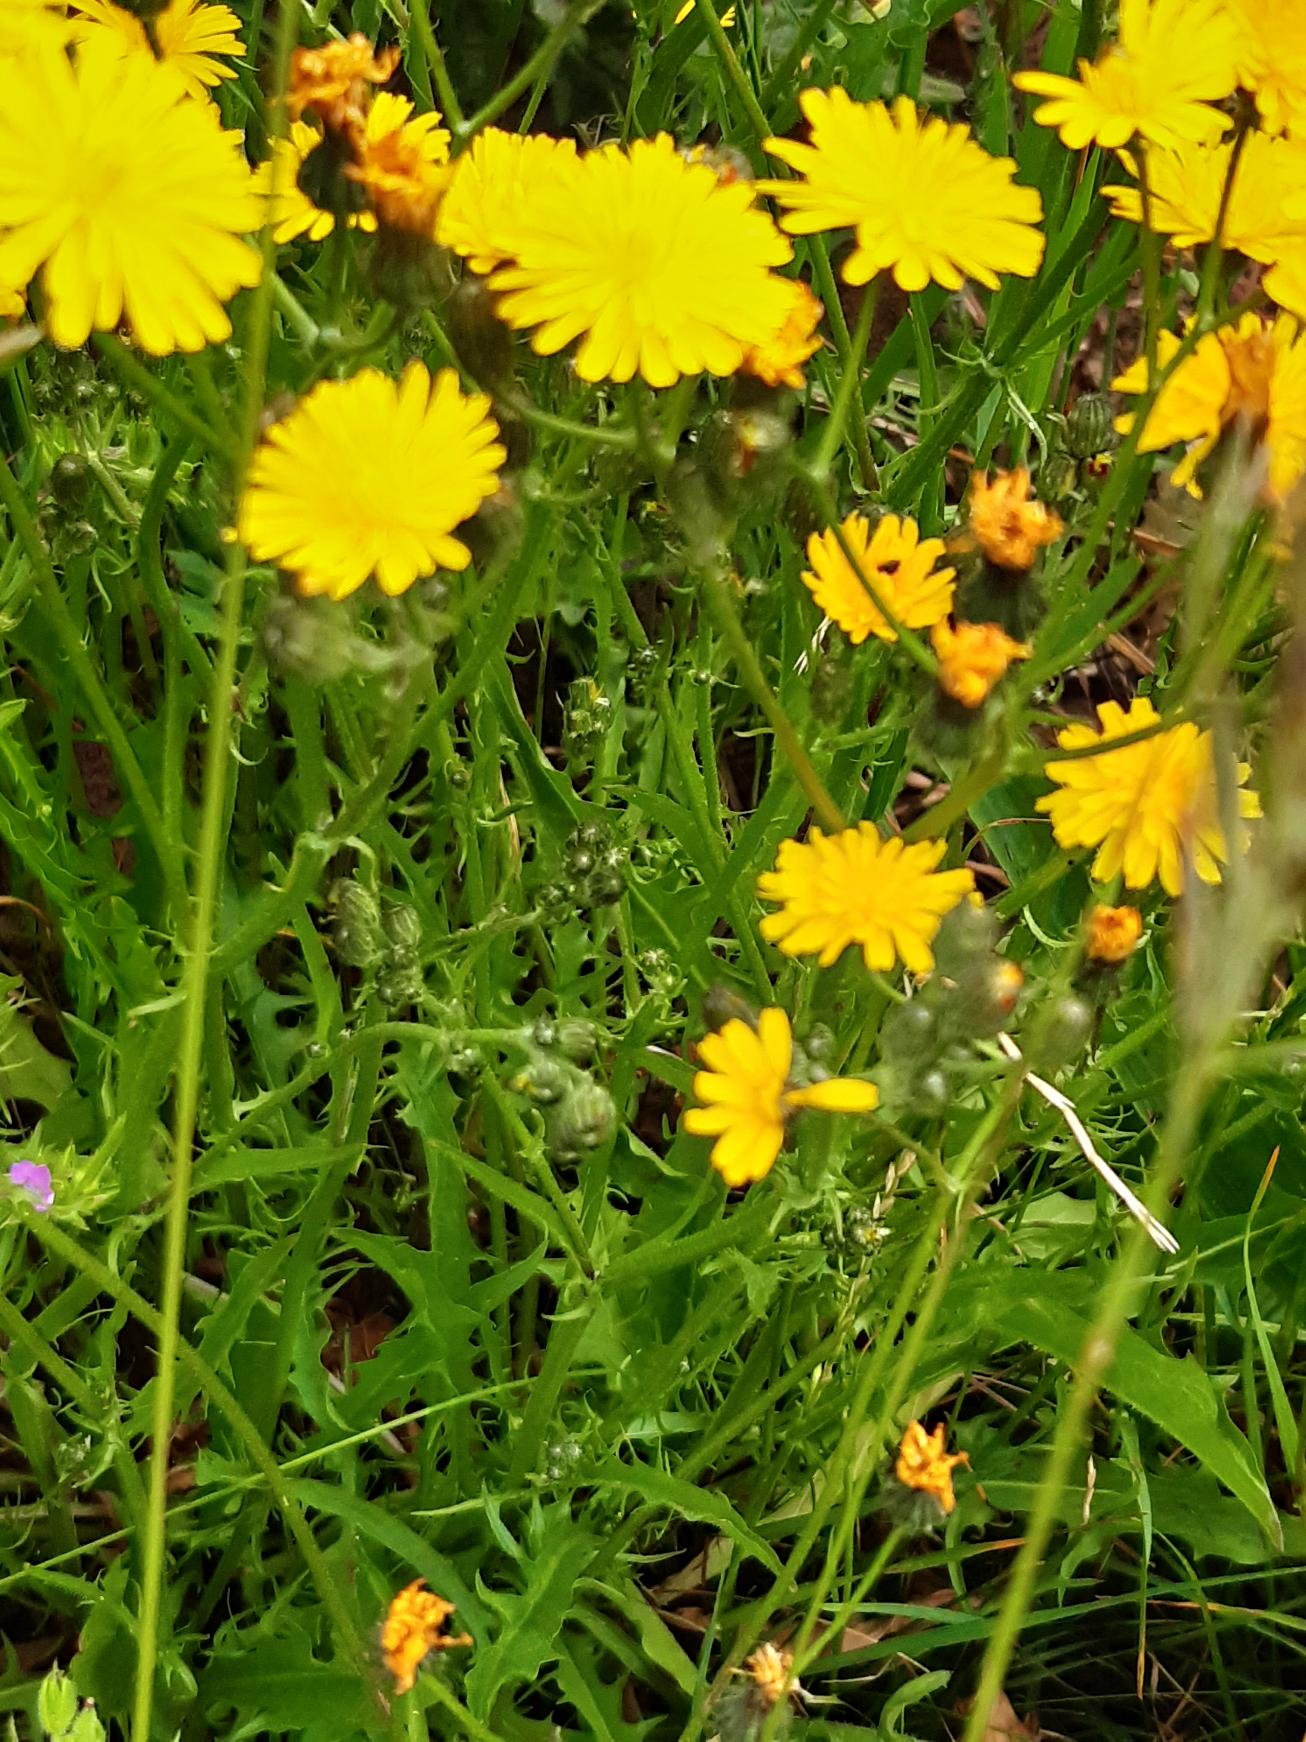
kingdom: Plantae
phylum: Tracheophyta
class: Magnoliopsida
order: Asterales
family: Asteraceae
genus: Crepis
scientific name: Crepis capillaris
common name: Grøn høgeskæg
